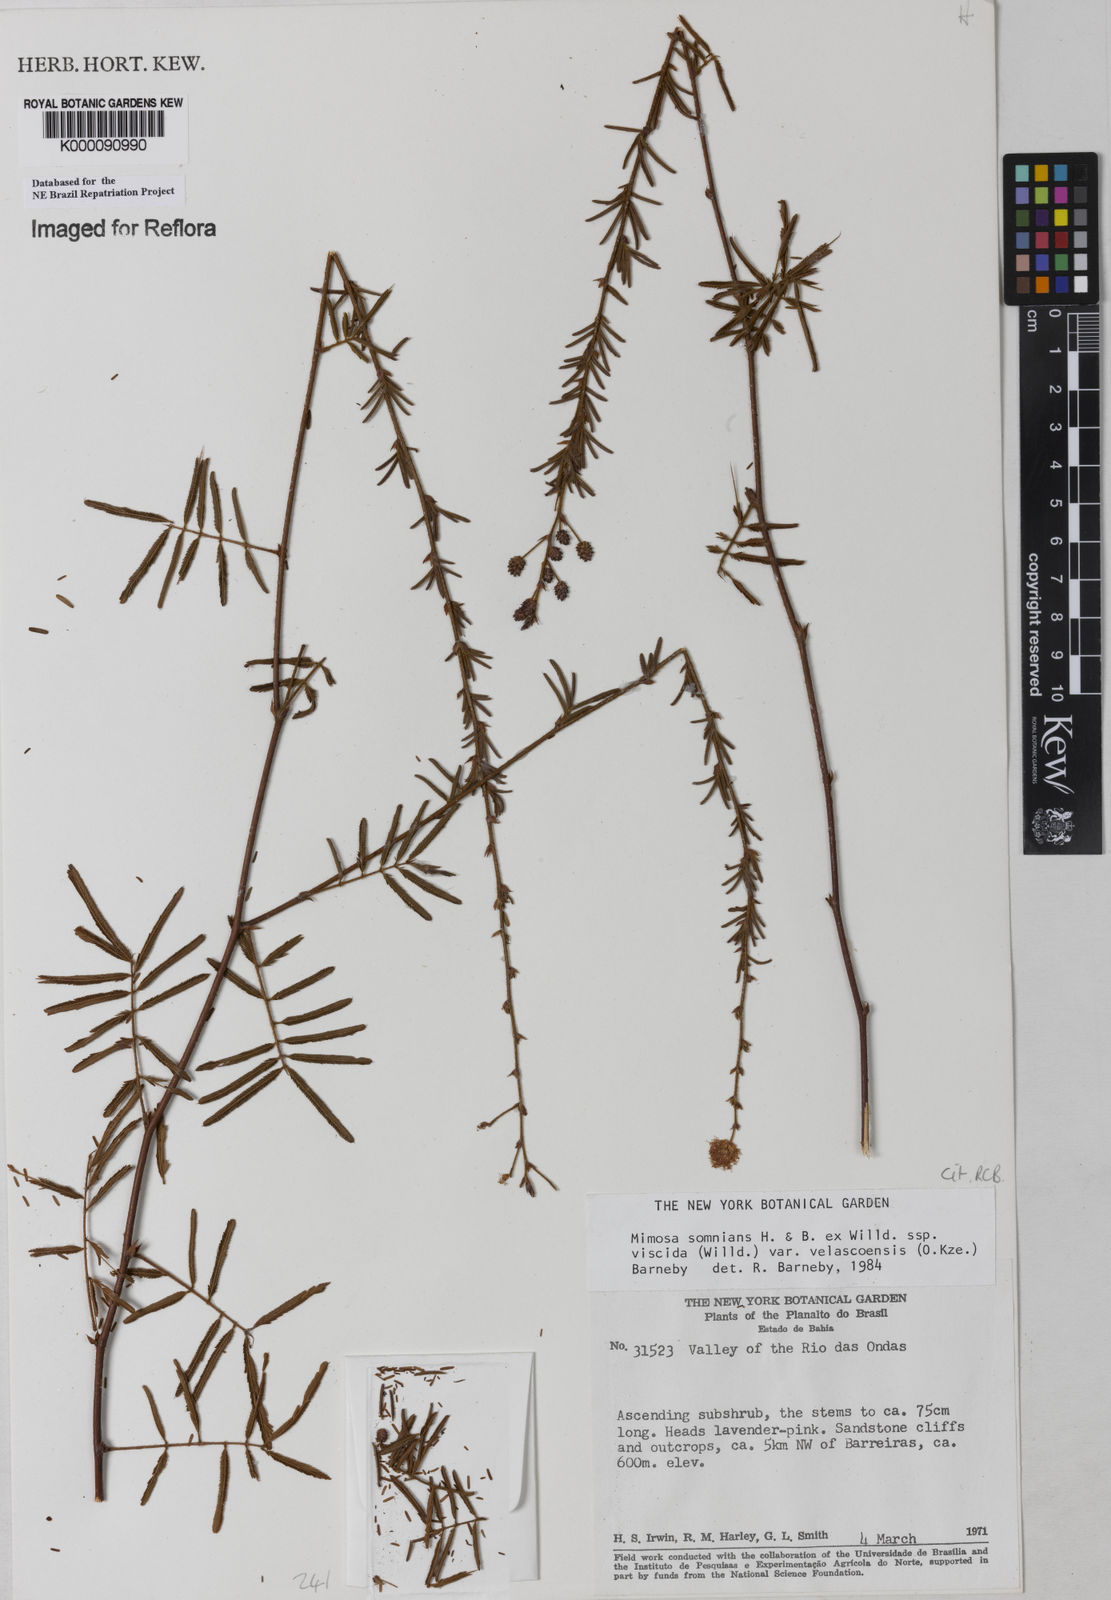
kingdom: Plantae
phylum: Tracheophyta
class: Magnoliopsida
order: Fabales
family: Fabaceae
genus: Mimosa
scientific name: Mimosa somnians
